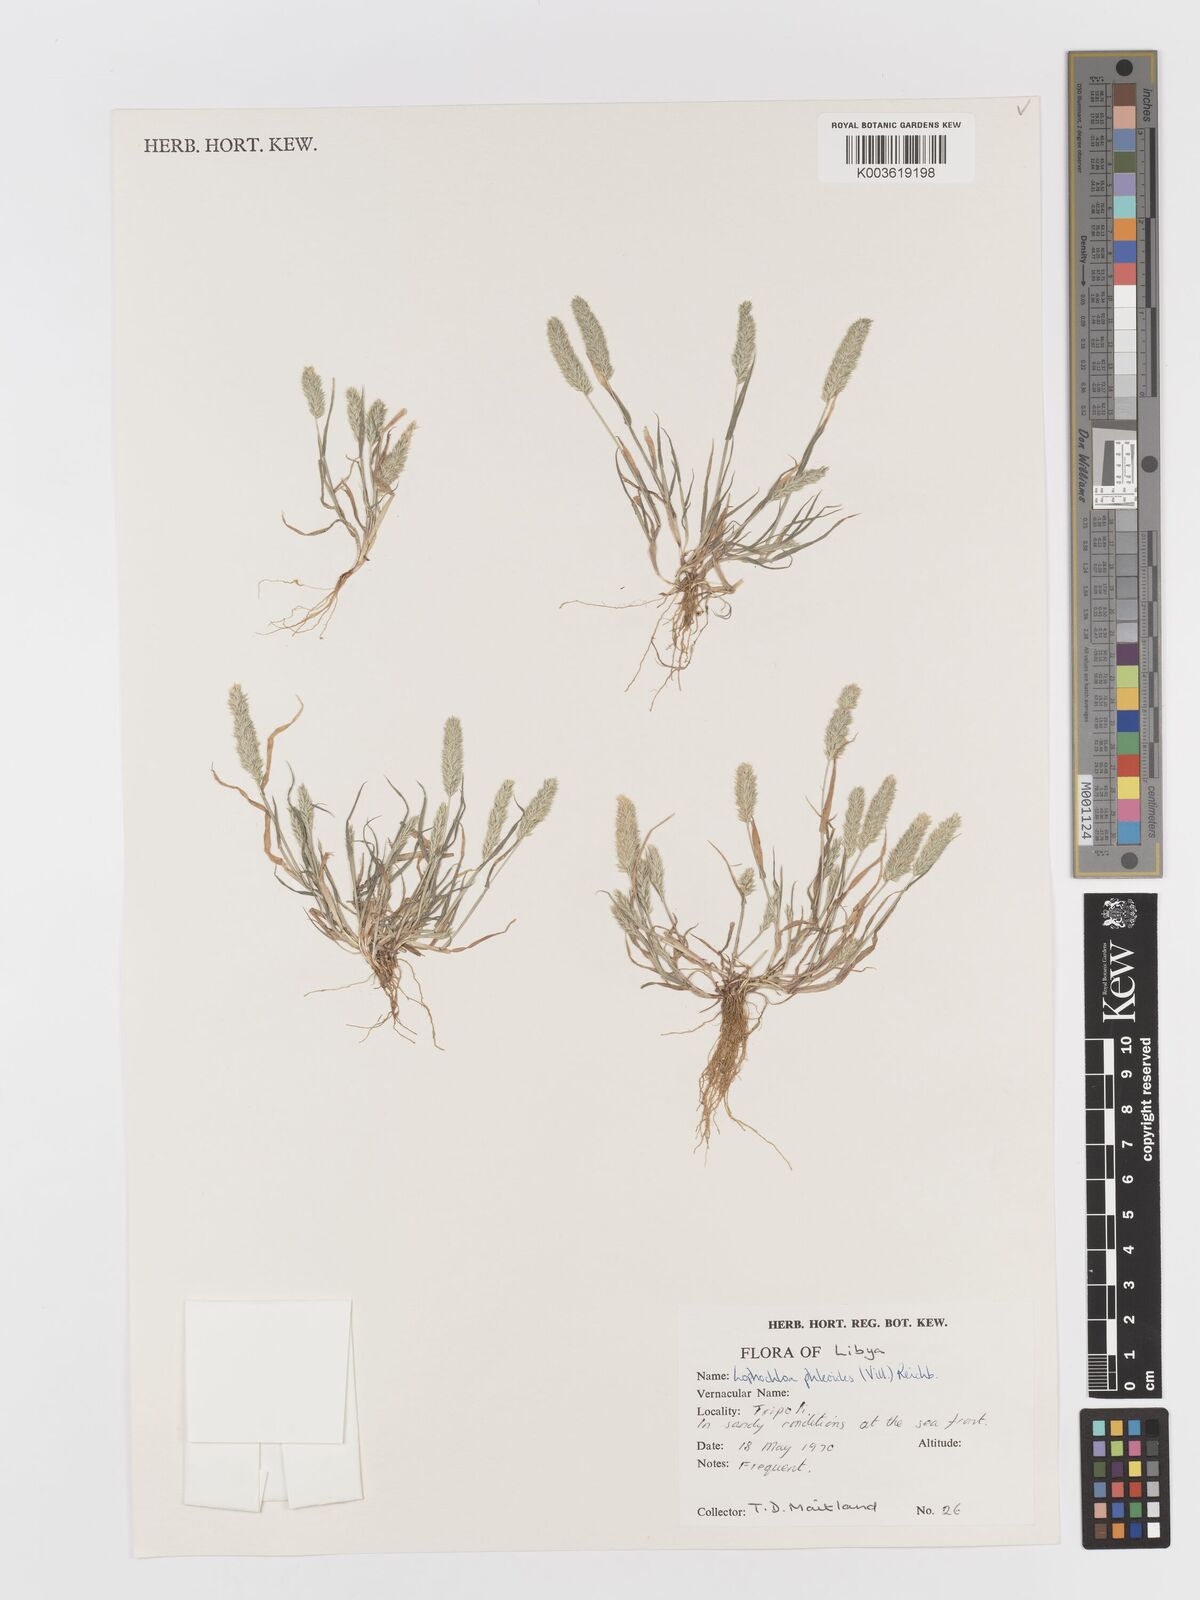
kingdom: Plantae
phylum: Tracheophyta
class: Liliopsida
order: Poales
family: Poaceae
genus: Rostraria
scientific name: Rostraria cristata
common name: Mediterranean hair-grass
